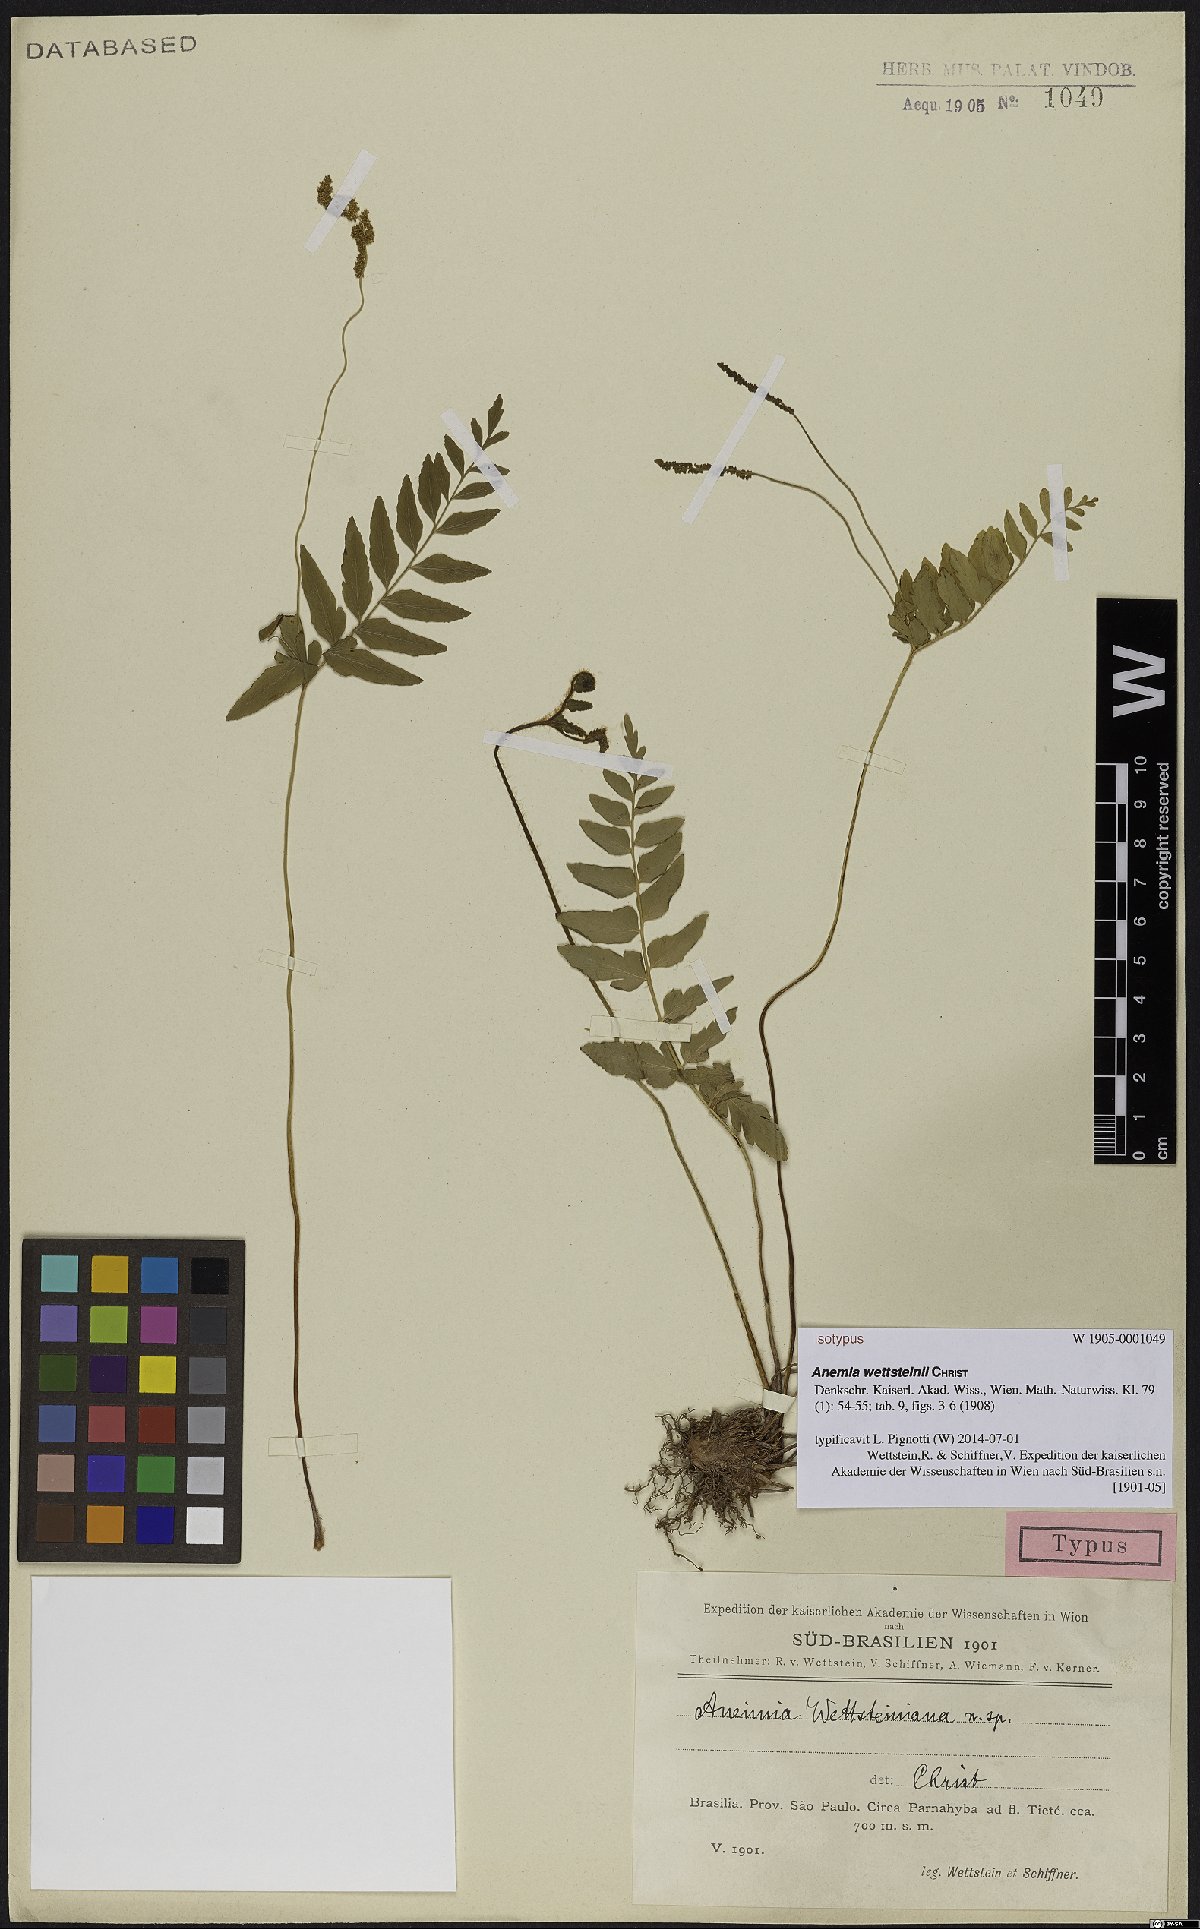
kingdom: Plantae
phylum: Tracheophyta
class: Polypodiopsida
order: Schizaeales
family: Anemiaceae
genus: Anemia
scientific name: Anemia wettsteinii
